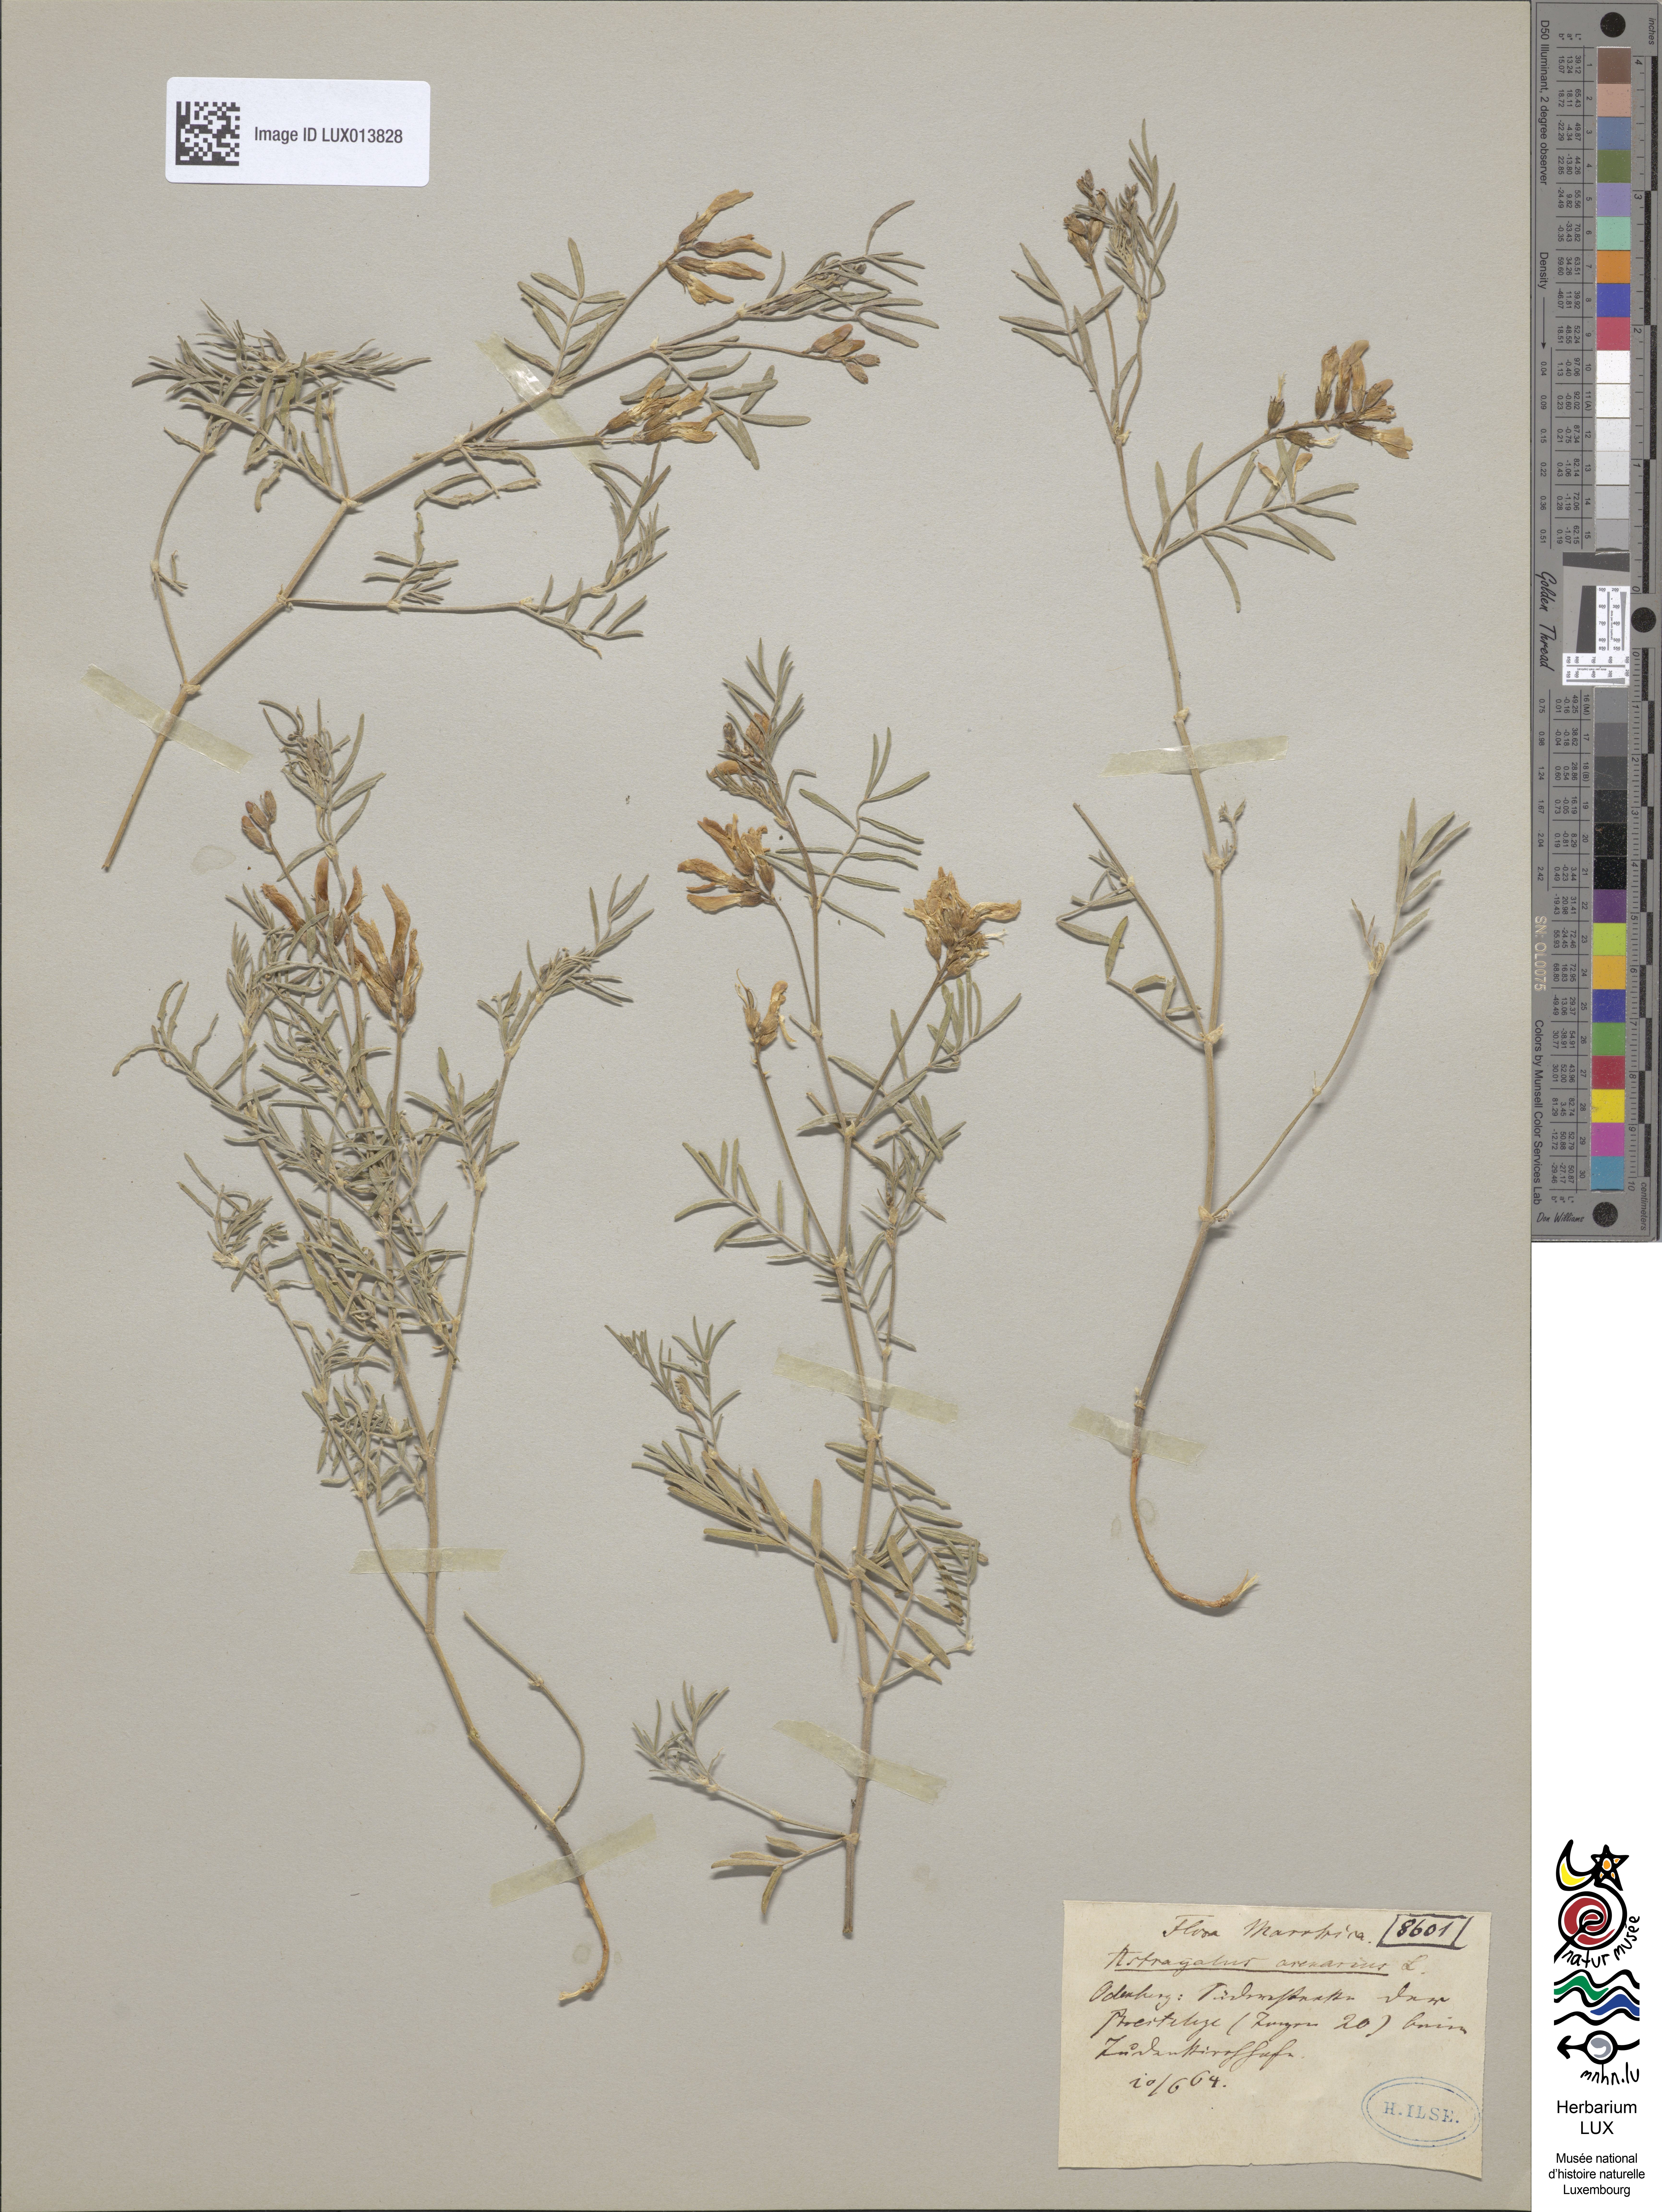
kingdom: Plantae
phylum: Tracheophyta
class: Magnoliopsida
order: Fabales
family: Fabaceae
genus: Astragalus
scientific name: Astragalus arenarius
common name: Arenarious milk-vetch
